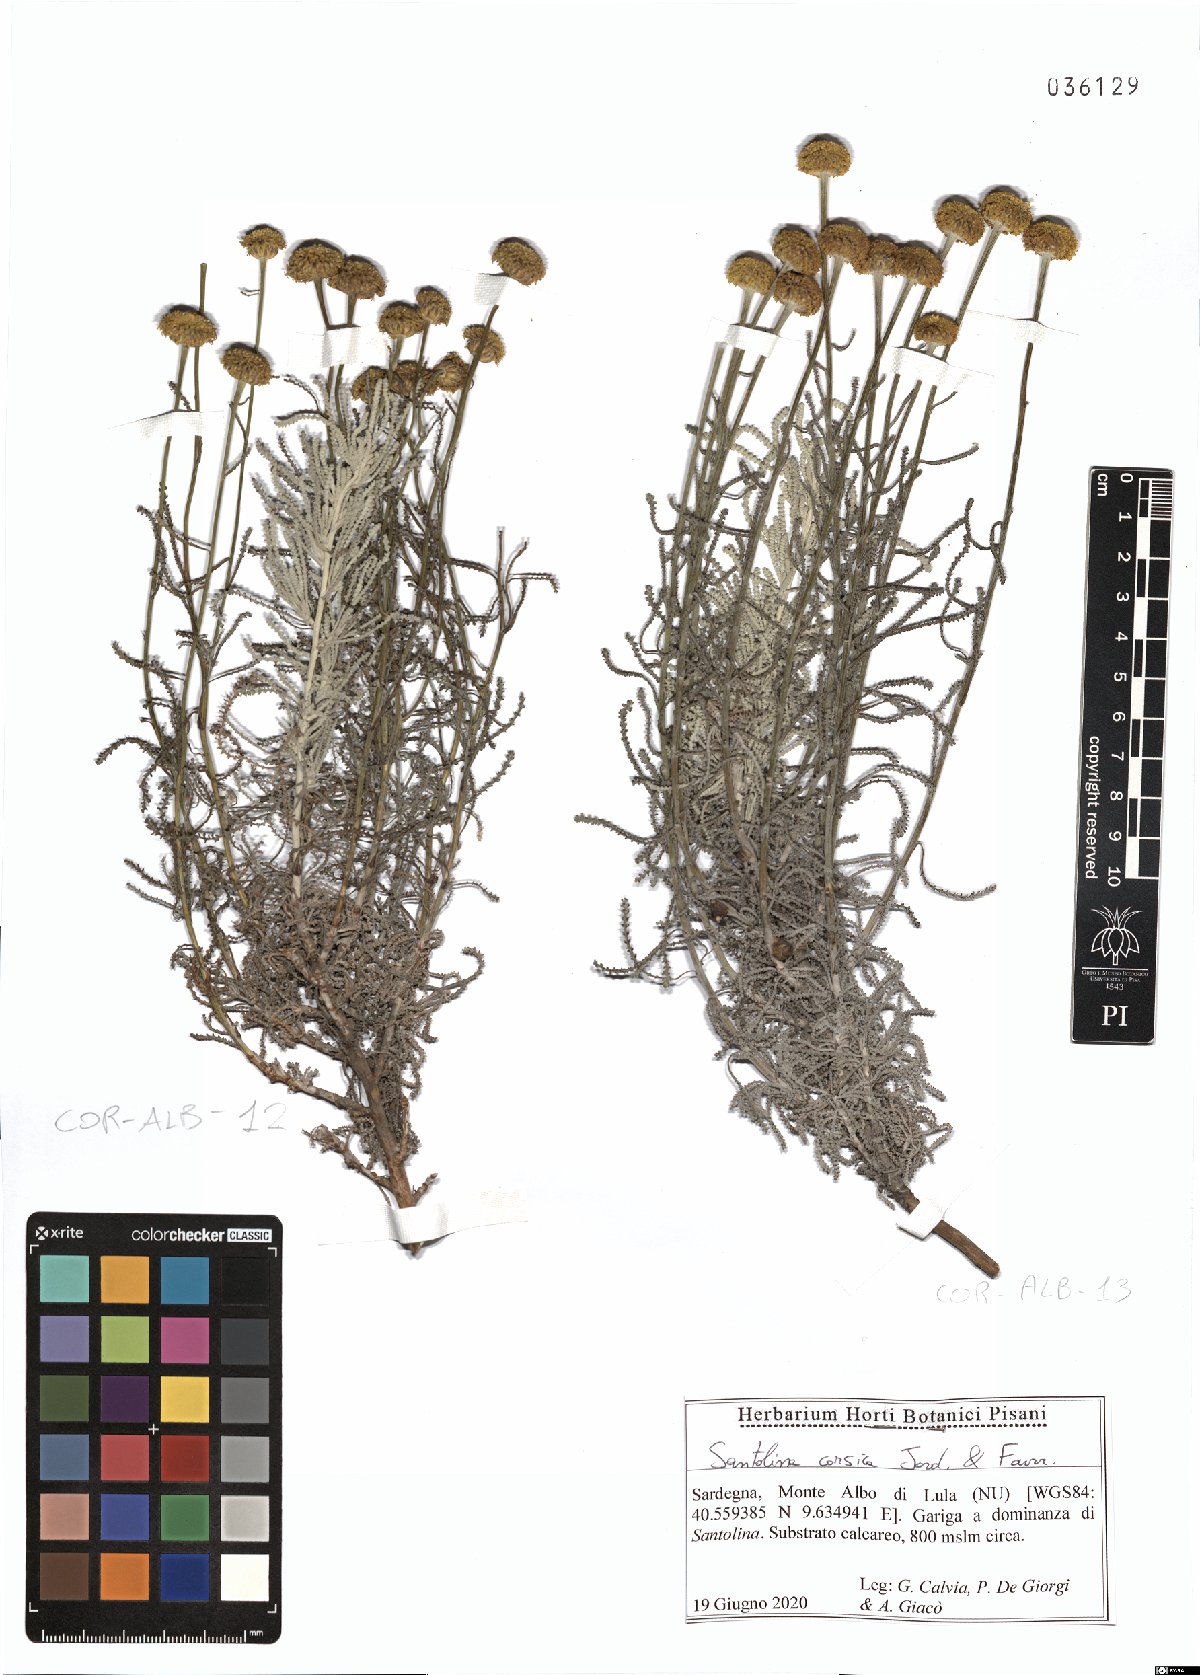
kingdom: Plantae
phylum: Tracheophyta
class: Magnoliopsida
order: Asterales
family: Asteraceae
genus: Santolina
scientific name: Santolina corsica
